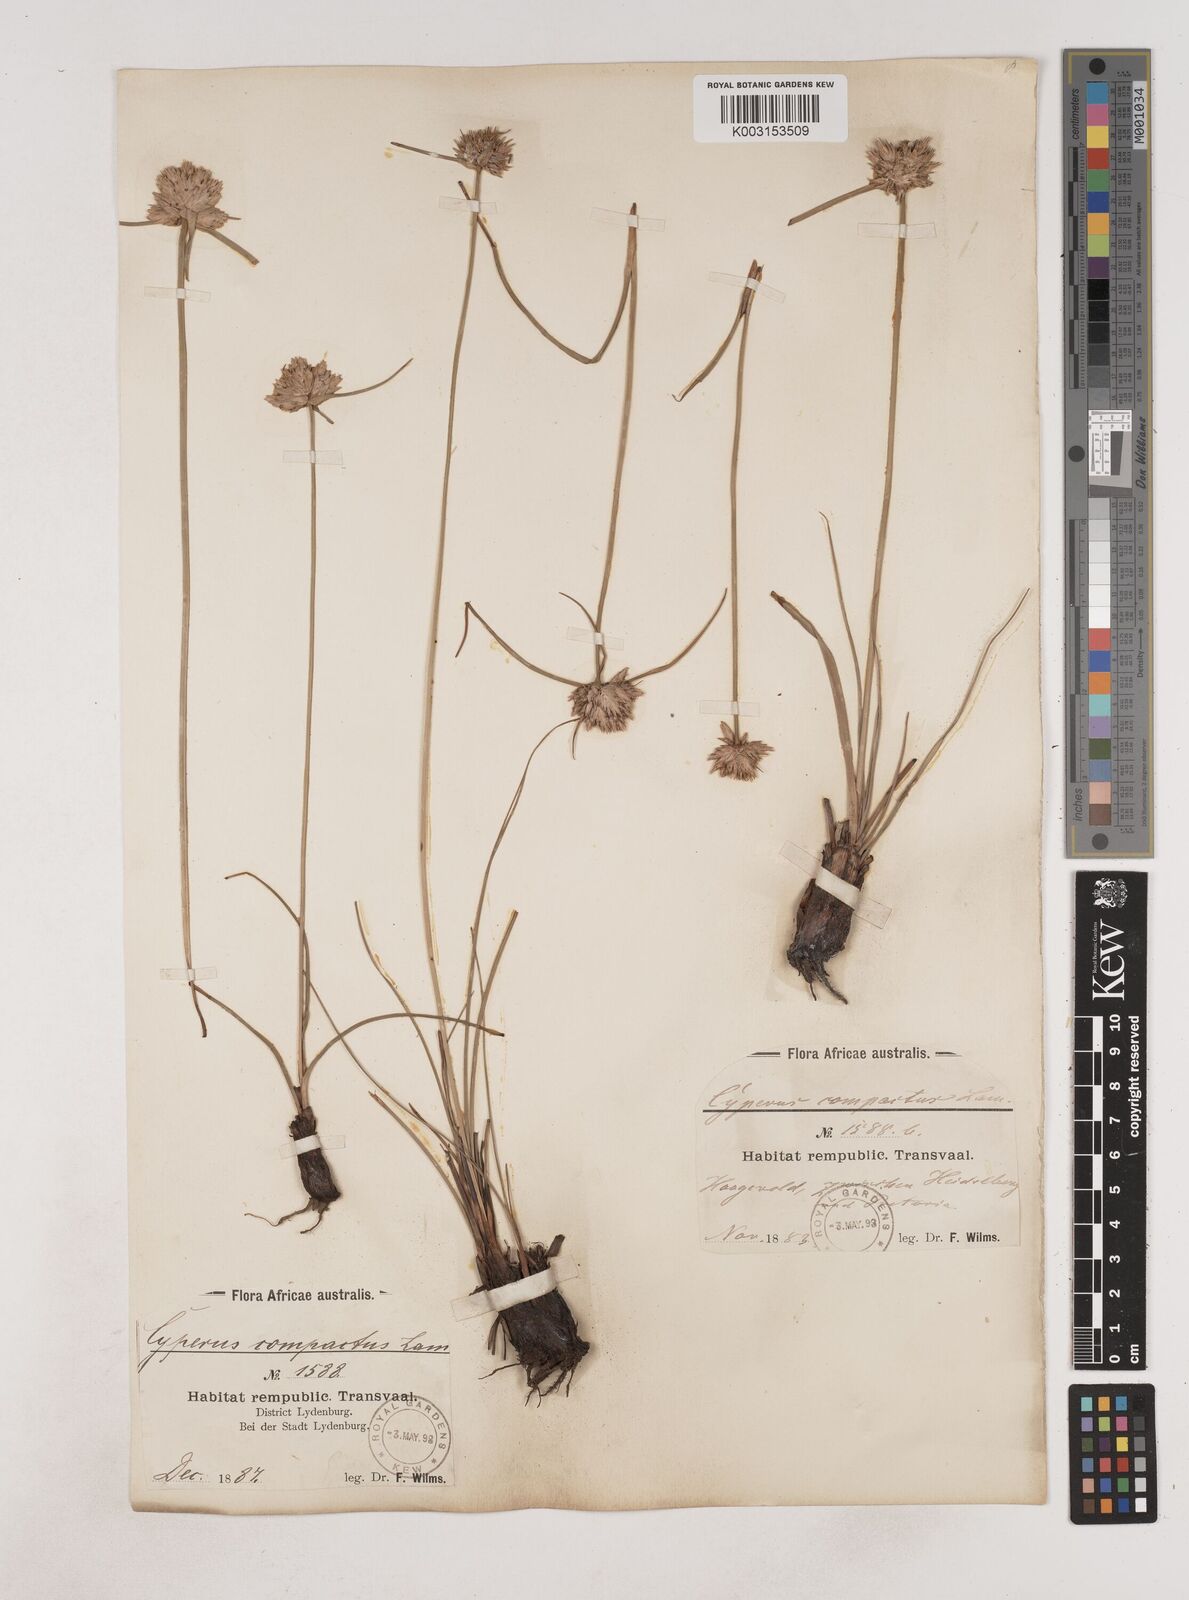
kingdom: Plantae
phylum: Tracheophyta
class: Liliopsida
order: Poales
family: Cyperaceae
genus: Cyperus
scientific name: Cyperus niveus
